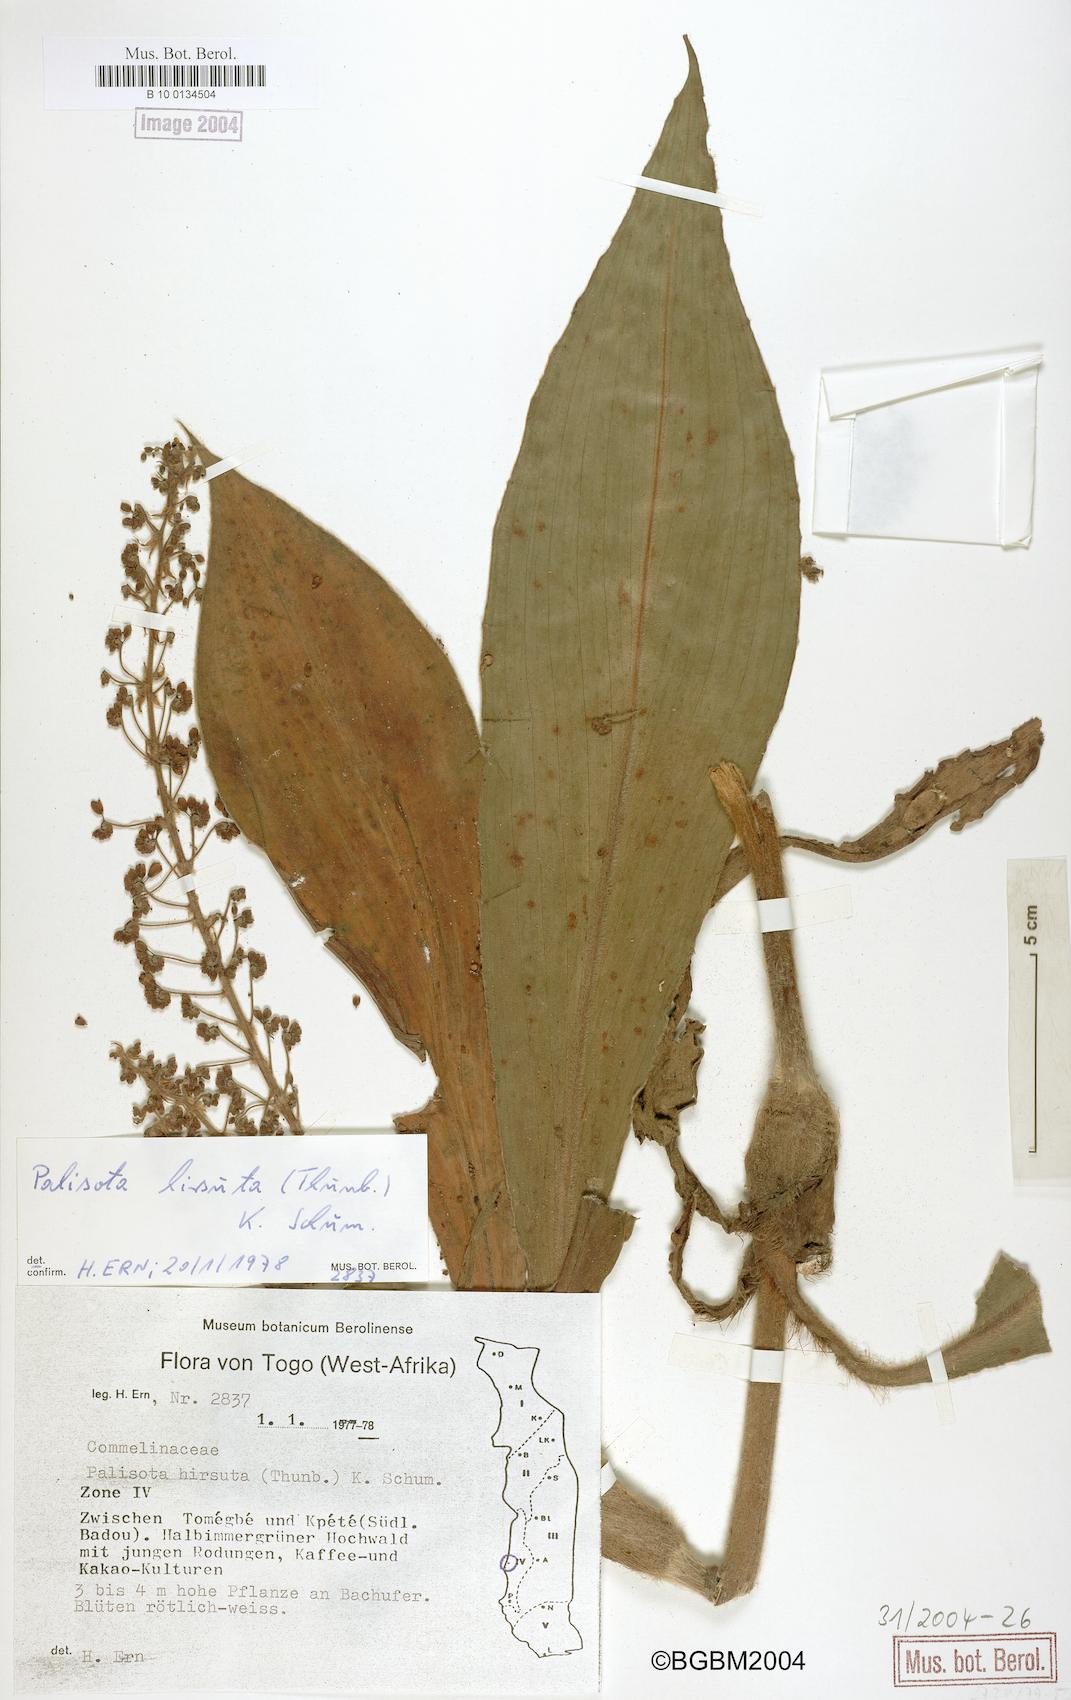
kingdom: Plantae
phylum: Tracheophyta
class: Liliopsida
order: Commelinales
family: Commelinaceae
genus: Palisota
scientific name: Palisota hirsuta
